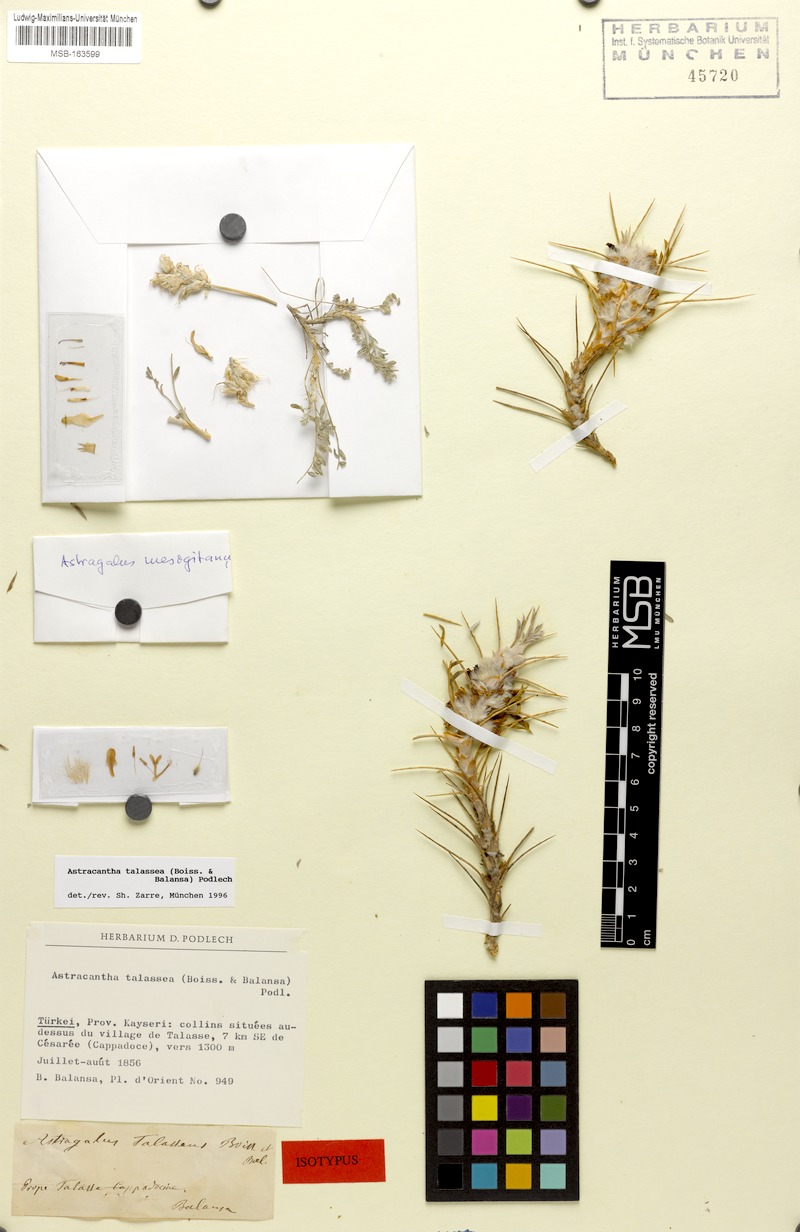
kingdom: Plantae
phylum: Tracheophyta
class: Magnoliopsida
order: Fabales
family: Fabaceae
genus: Astragalus
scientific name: Astragalus talasseus
